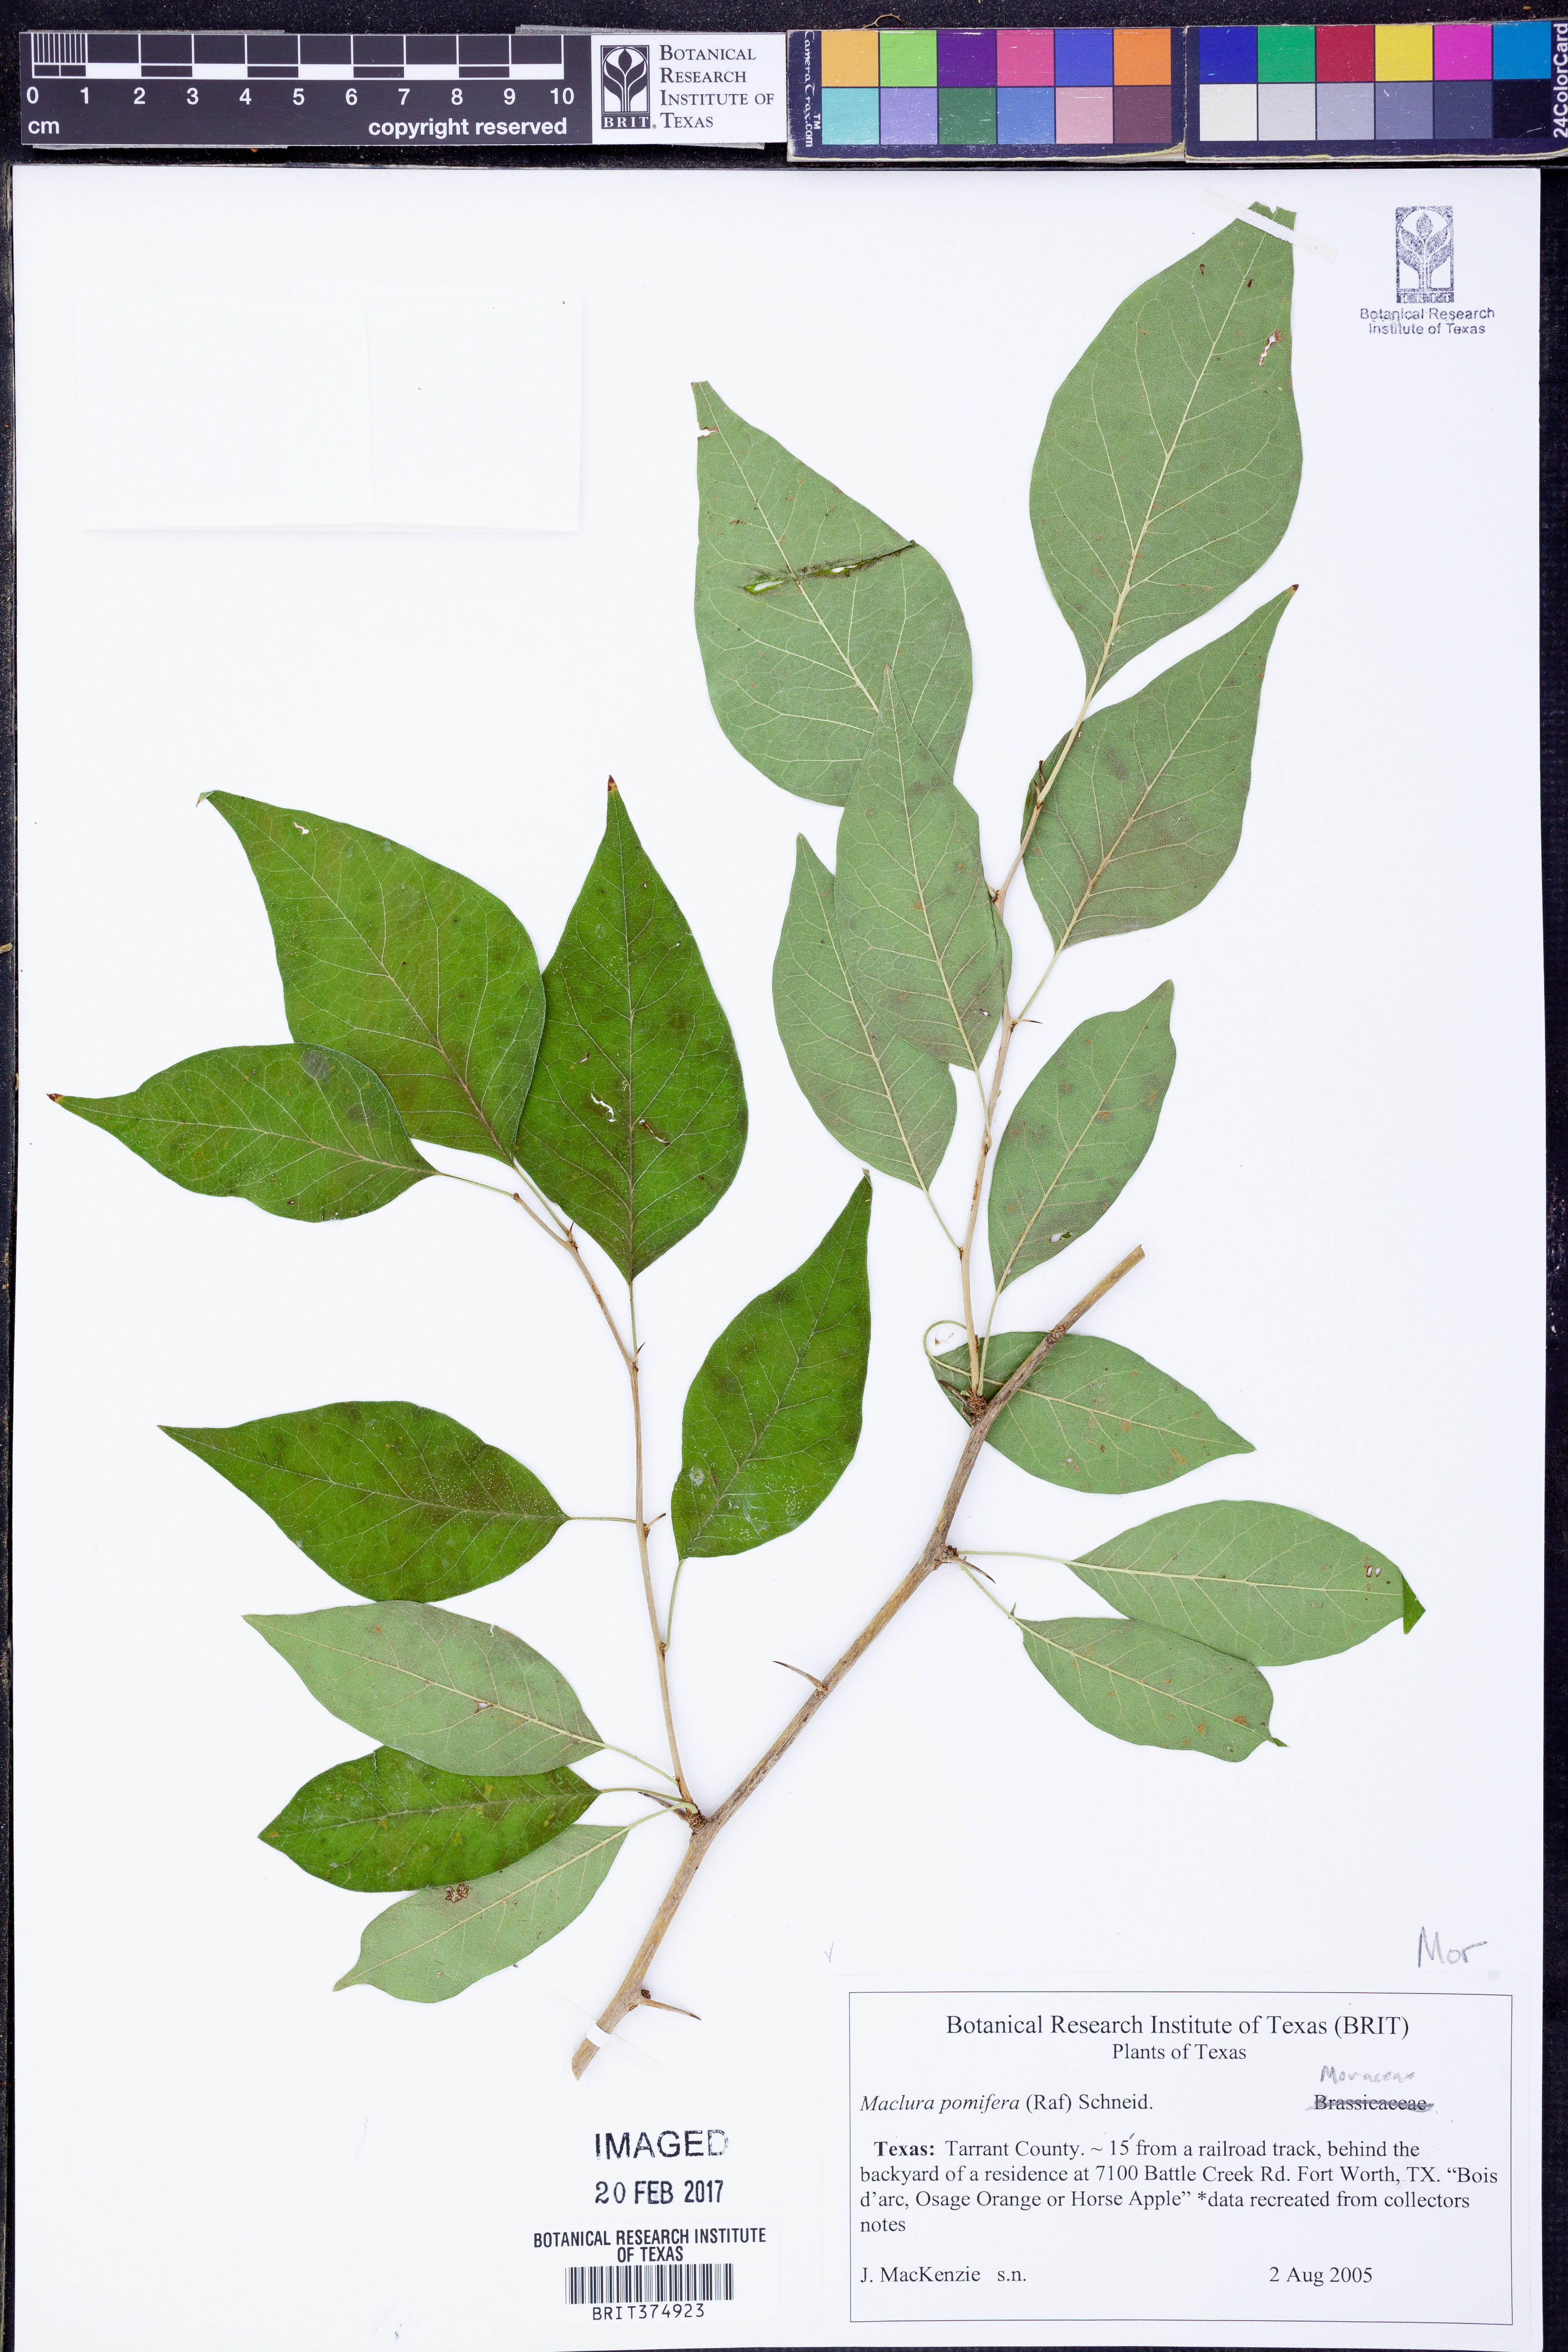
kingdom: Plantae
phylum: Tracheophyta
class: Magnoliopsida
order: Rosales
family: Moraceae
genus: Maclura
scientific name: Maclura pomifera
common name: Osage-orange
